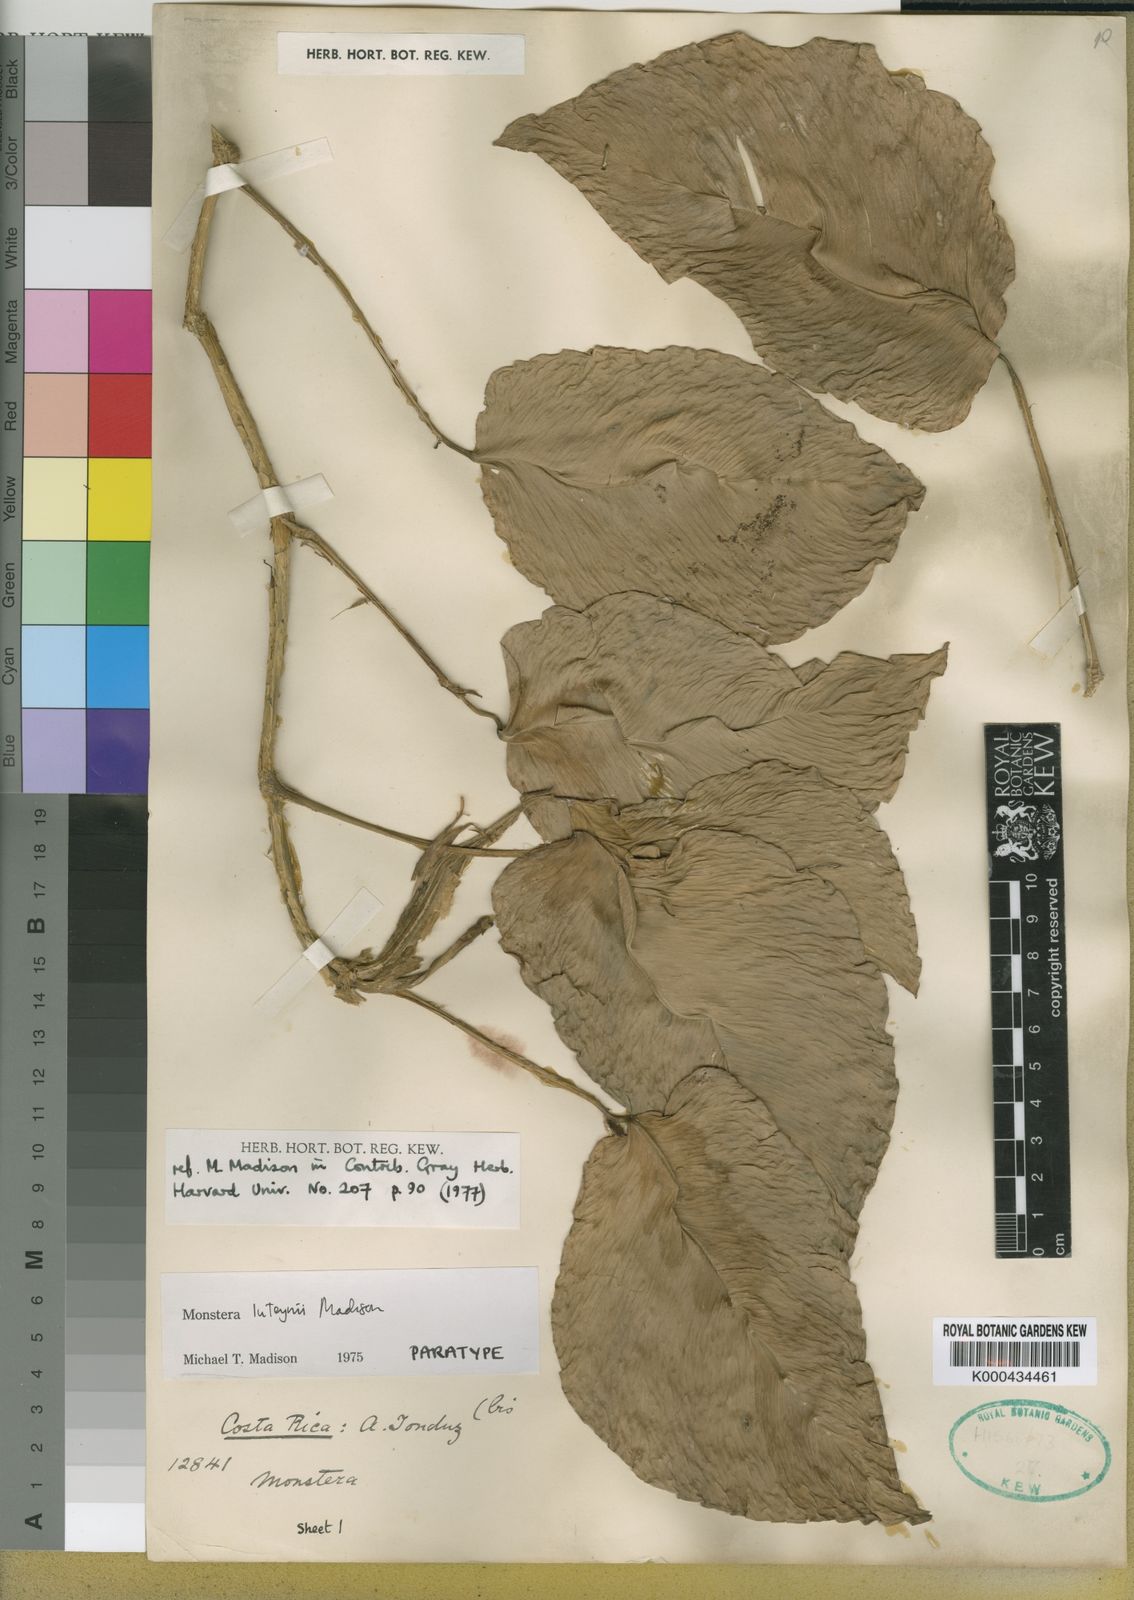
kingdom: Plantae
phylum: Tracheophyta
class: Liliopsida
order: Alismatales
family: Araceae
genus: Monstera
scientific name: Monstera luteynii
